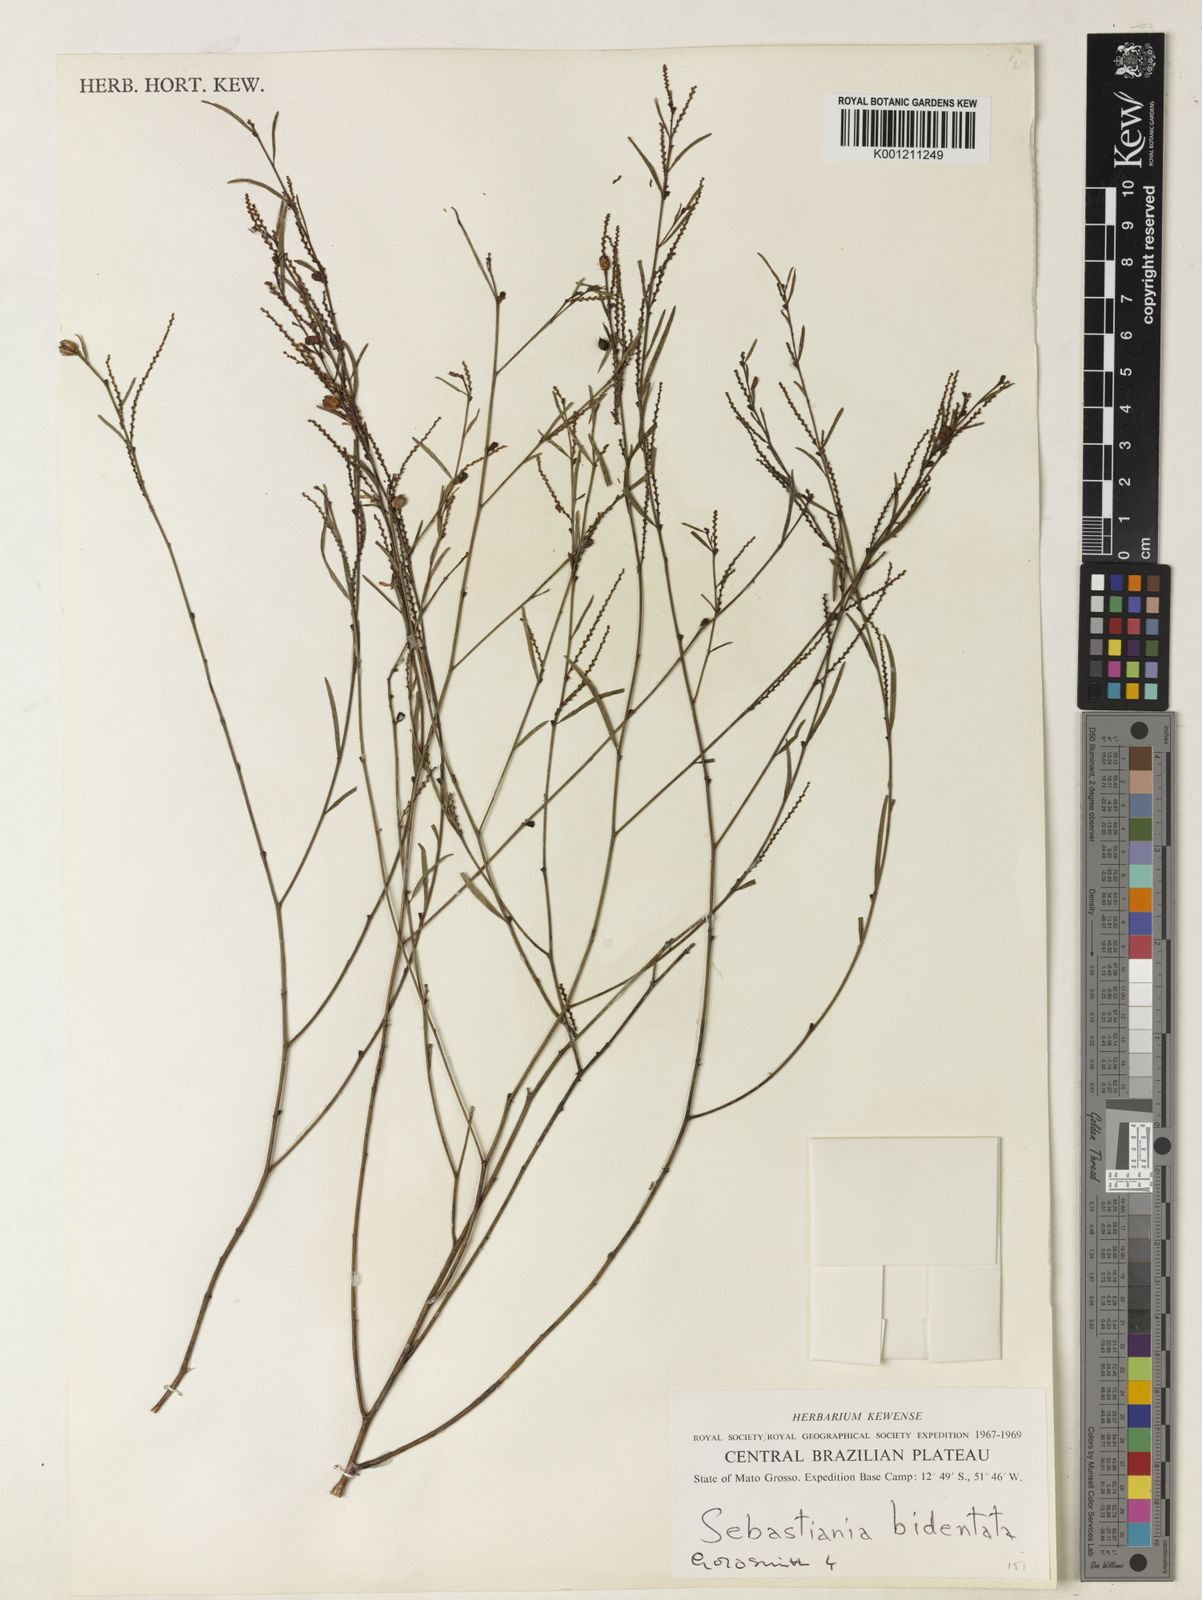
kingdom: Plantae
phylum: Tracheophyta
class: Magnoliopsida
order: Malpighiales
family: Euphorbiaceae
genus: Microstachys
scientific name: Microstachys bidentata
